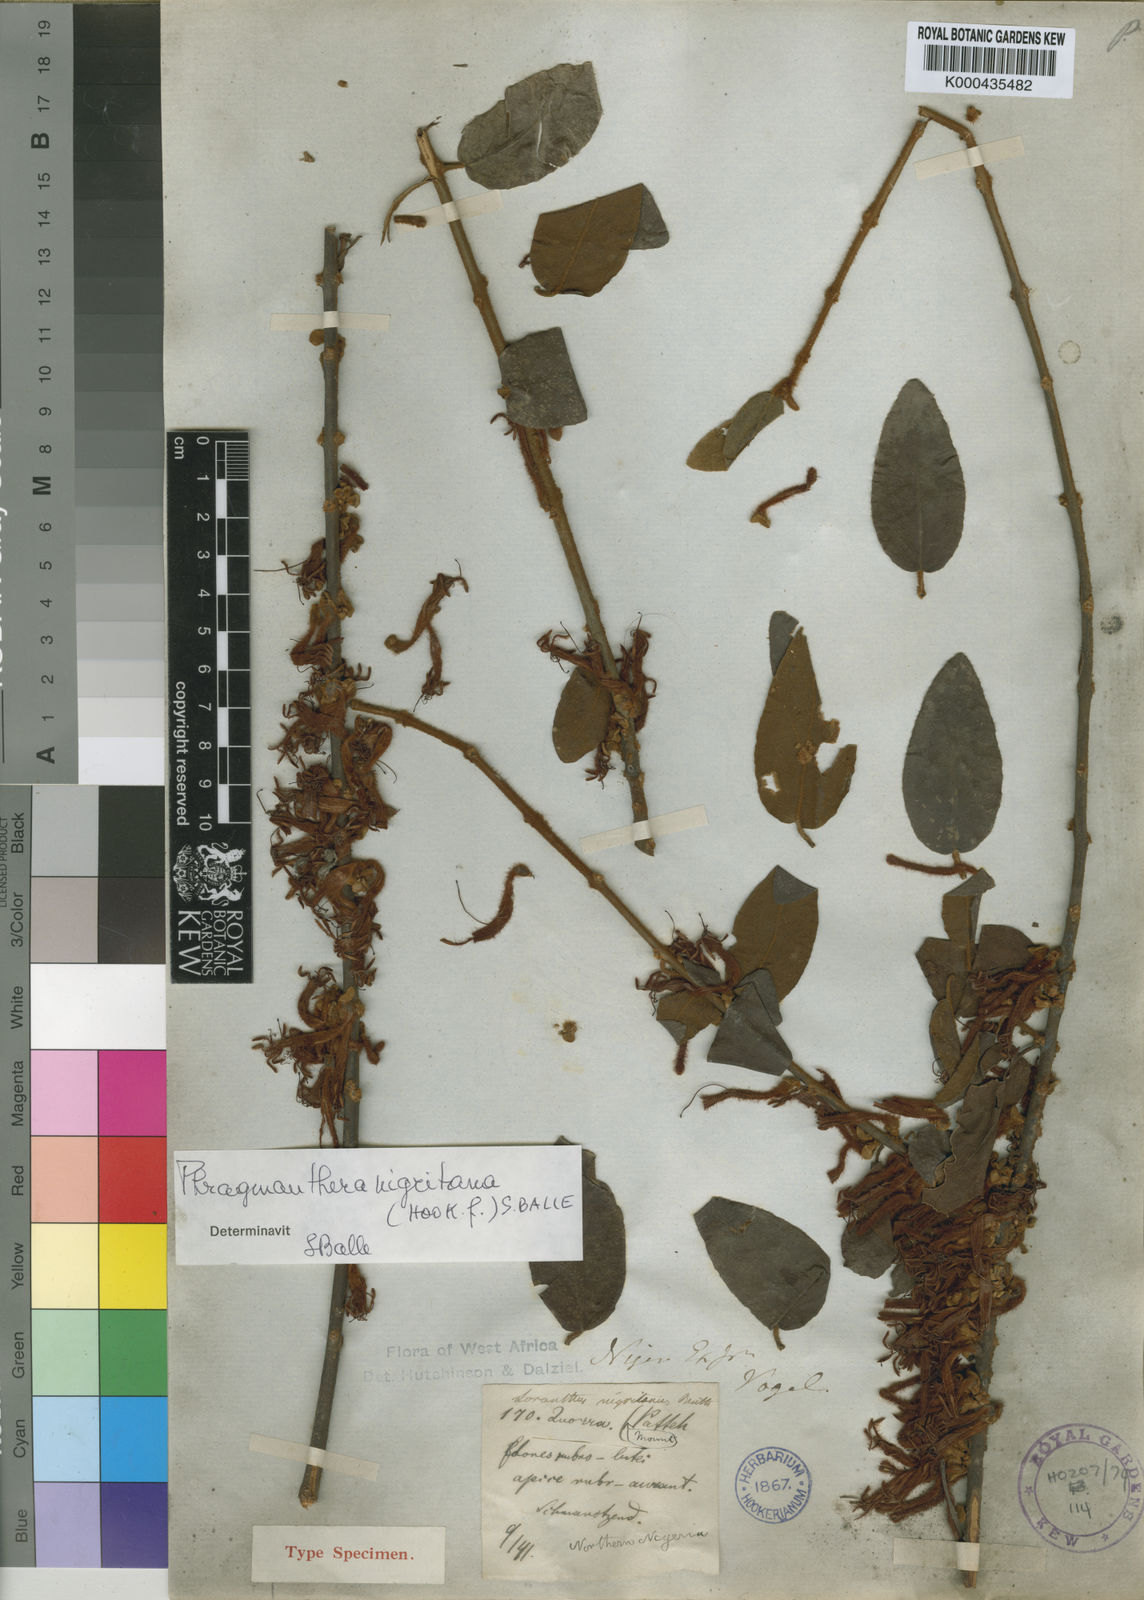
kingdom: Plantae
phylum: Tracheophyta
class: Magnoliopsida
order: Santalales
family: Loranthaceae
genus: Phragmanthera
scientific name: Phragmanthera nigritana
